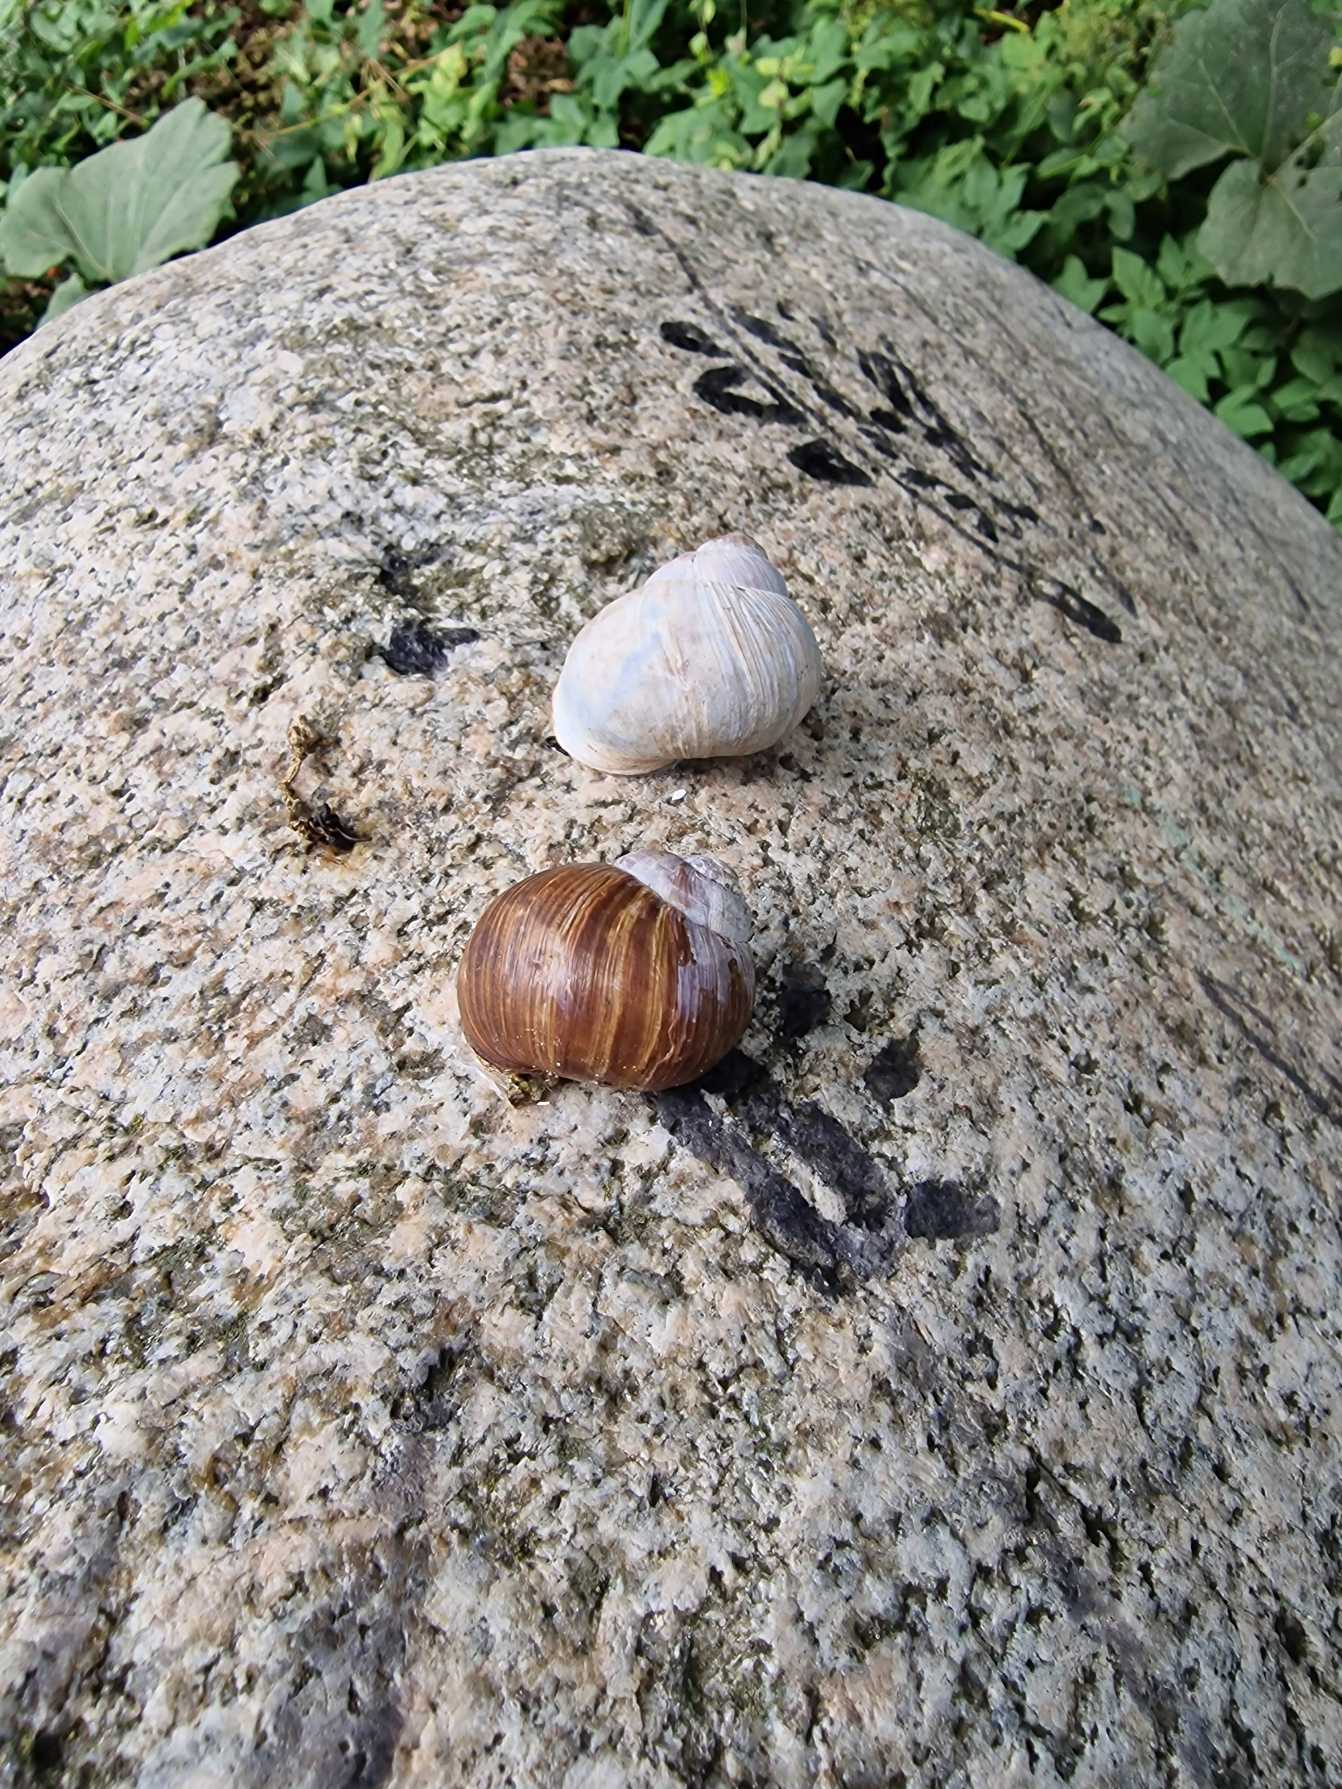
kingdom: Animalia
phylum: Mollusca
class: Gastropoda
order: Stylommatophora
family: Helicidae
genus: Helix
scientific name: Helix pomatia
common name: Vinbjergsnegl
